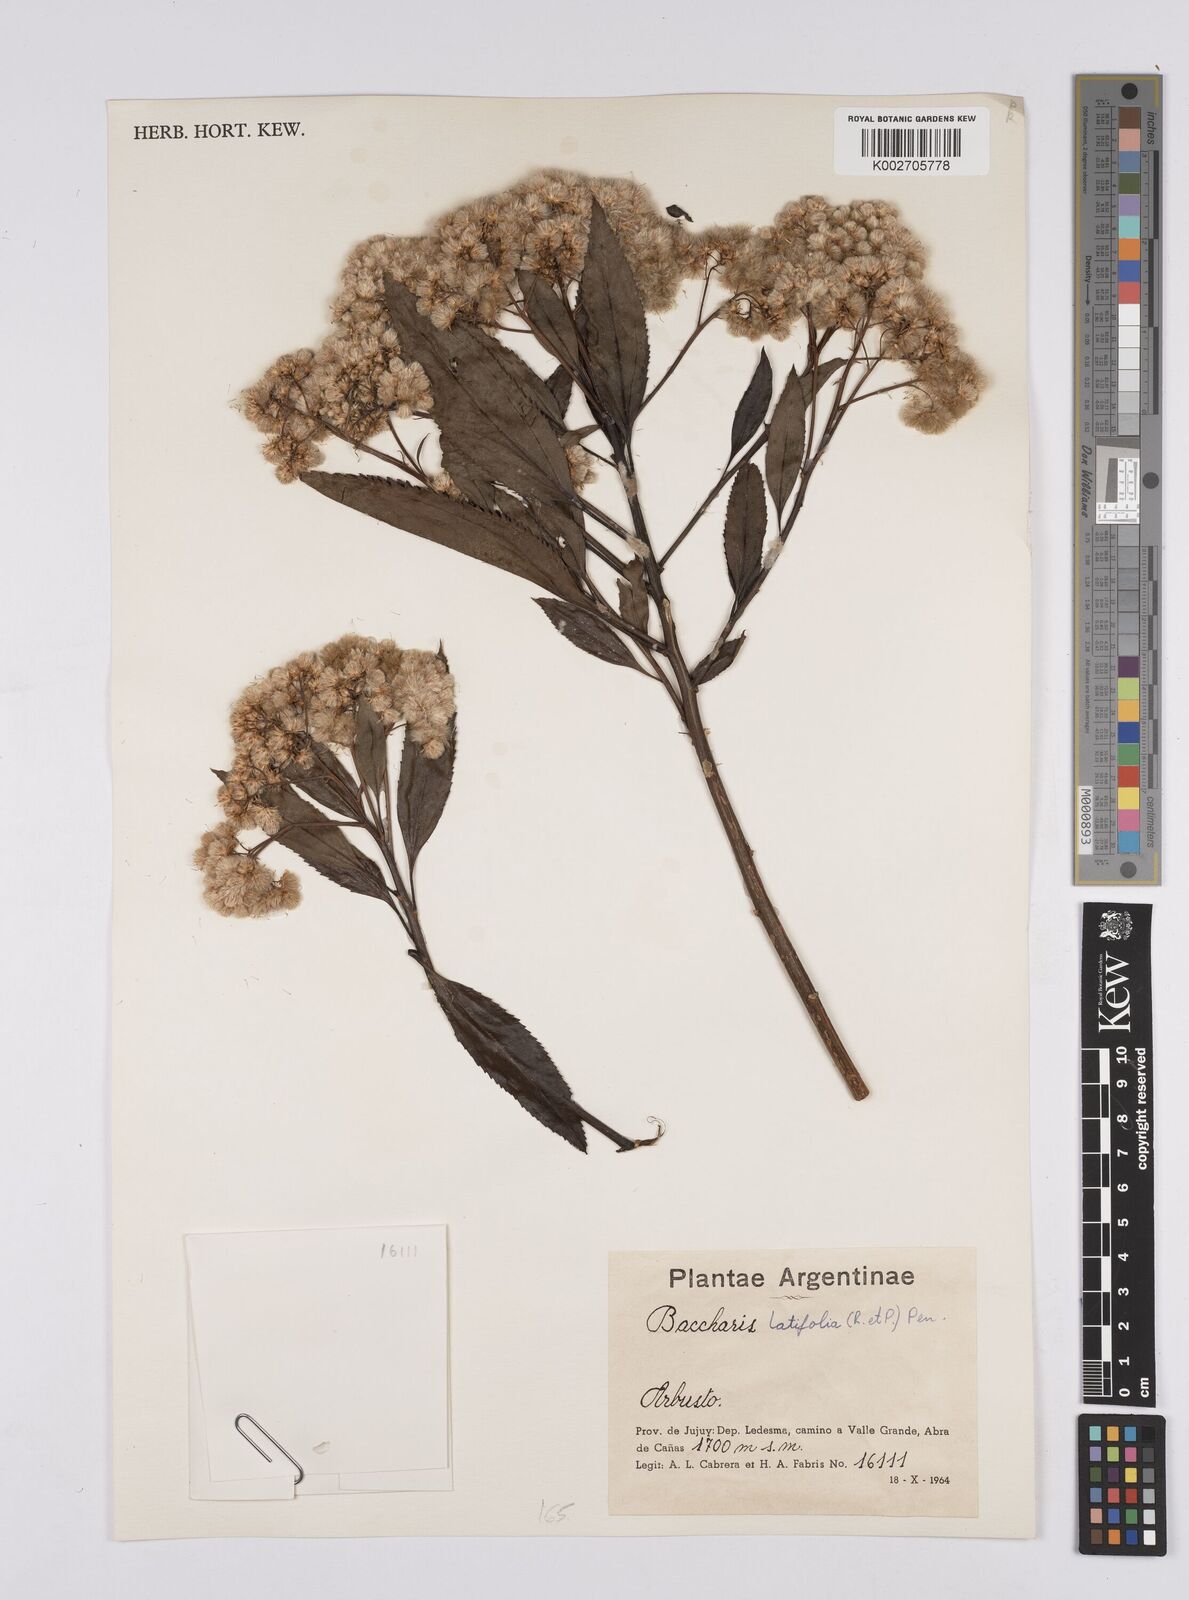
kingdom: Plantae
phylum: Tracheophyta
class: Magnoliopsida
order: Asterales
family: Asteraceae
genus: Baccharis
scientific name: Baccharis latifolia
